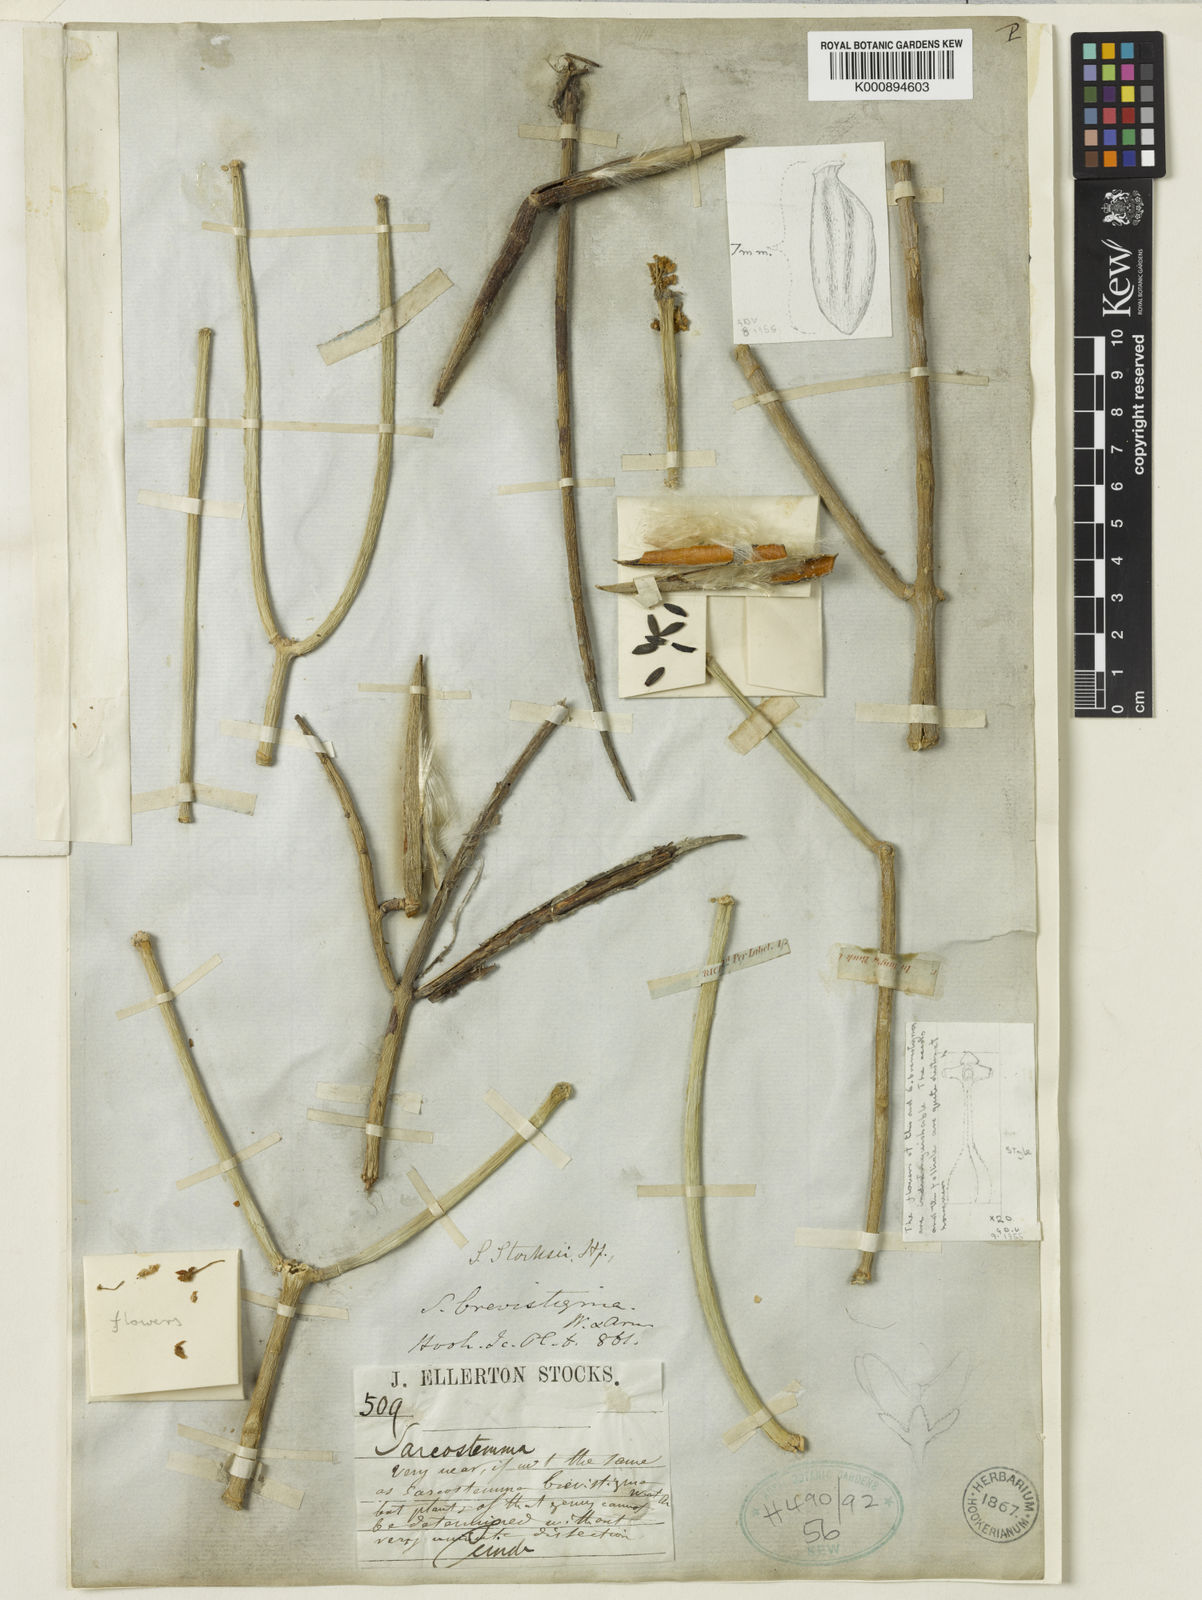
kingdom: Plantae
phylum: Tracheophyta
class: Magnoliopsida
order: Gentianales
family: Apocynaceae
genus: Cynanchum
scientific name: Cynanchum viminale
